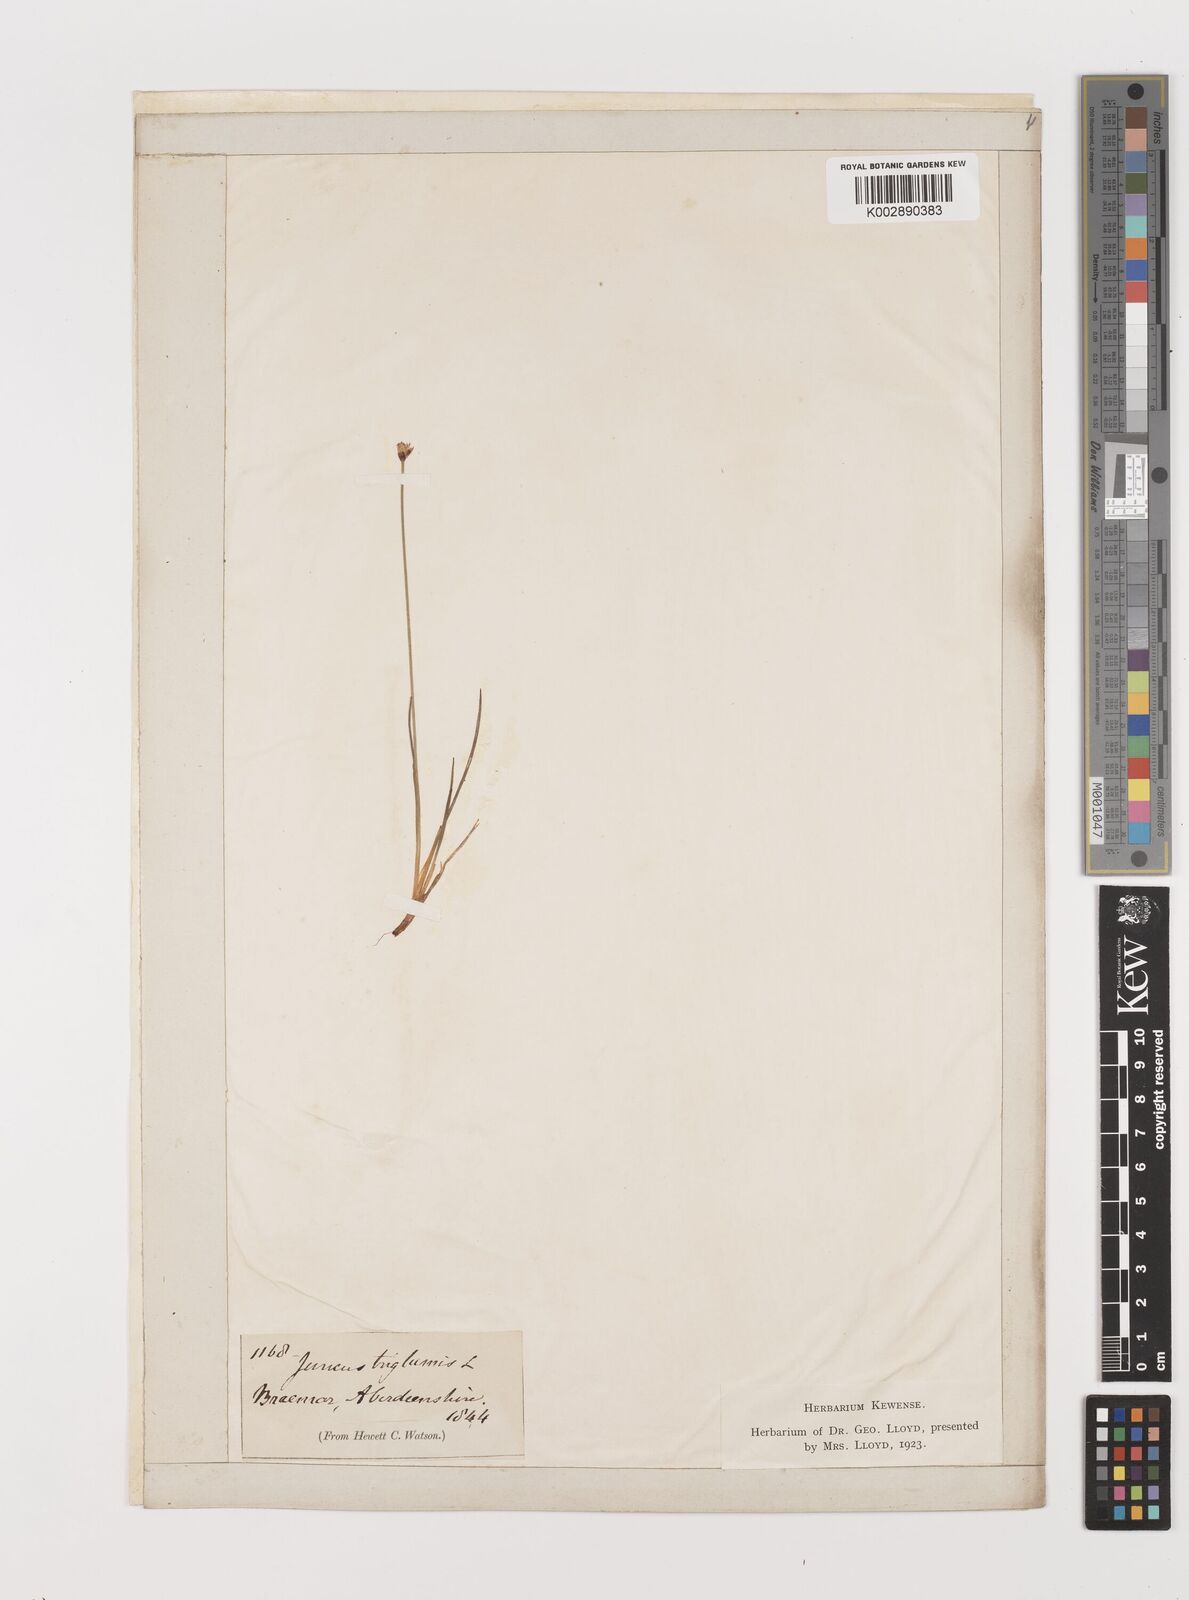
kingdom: Plantae
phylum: Tracheophyta
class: Liliopsida
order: Poales
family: Juncaceae
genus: Juncus
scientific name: Juncus triglumis
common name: Three-flowered rush
